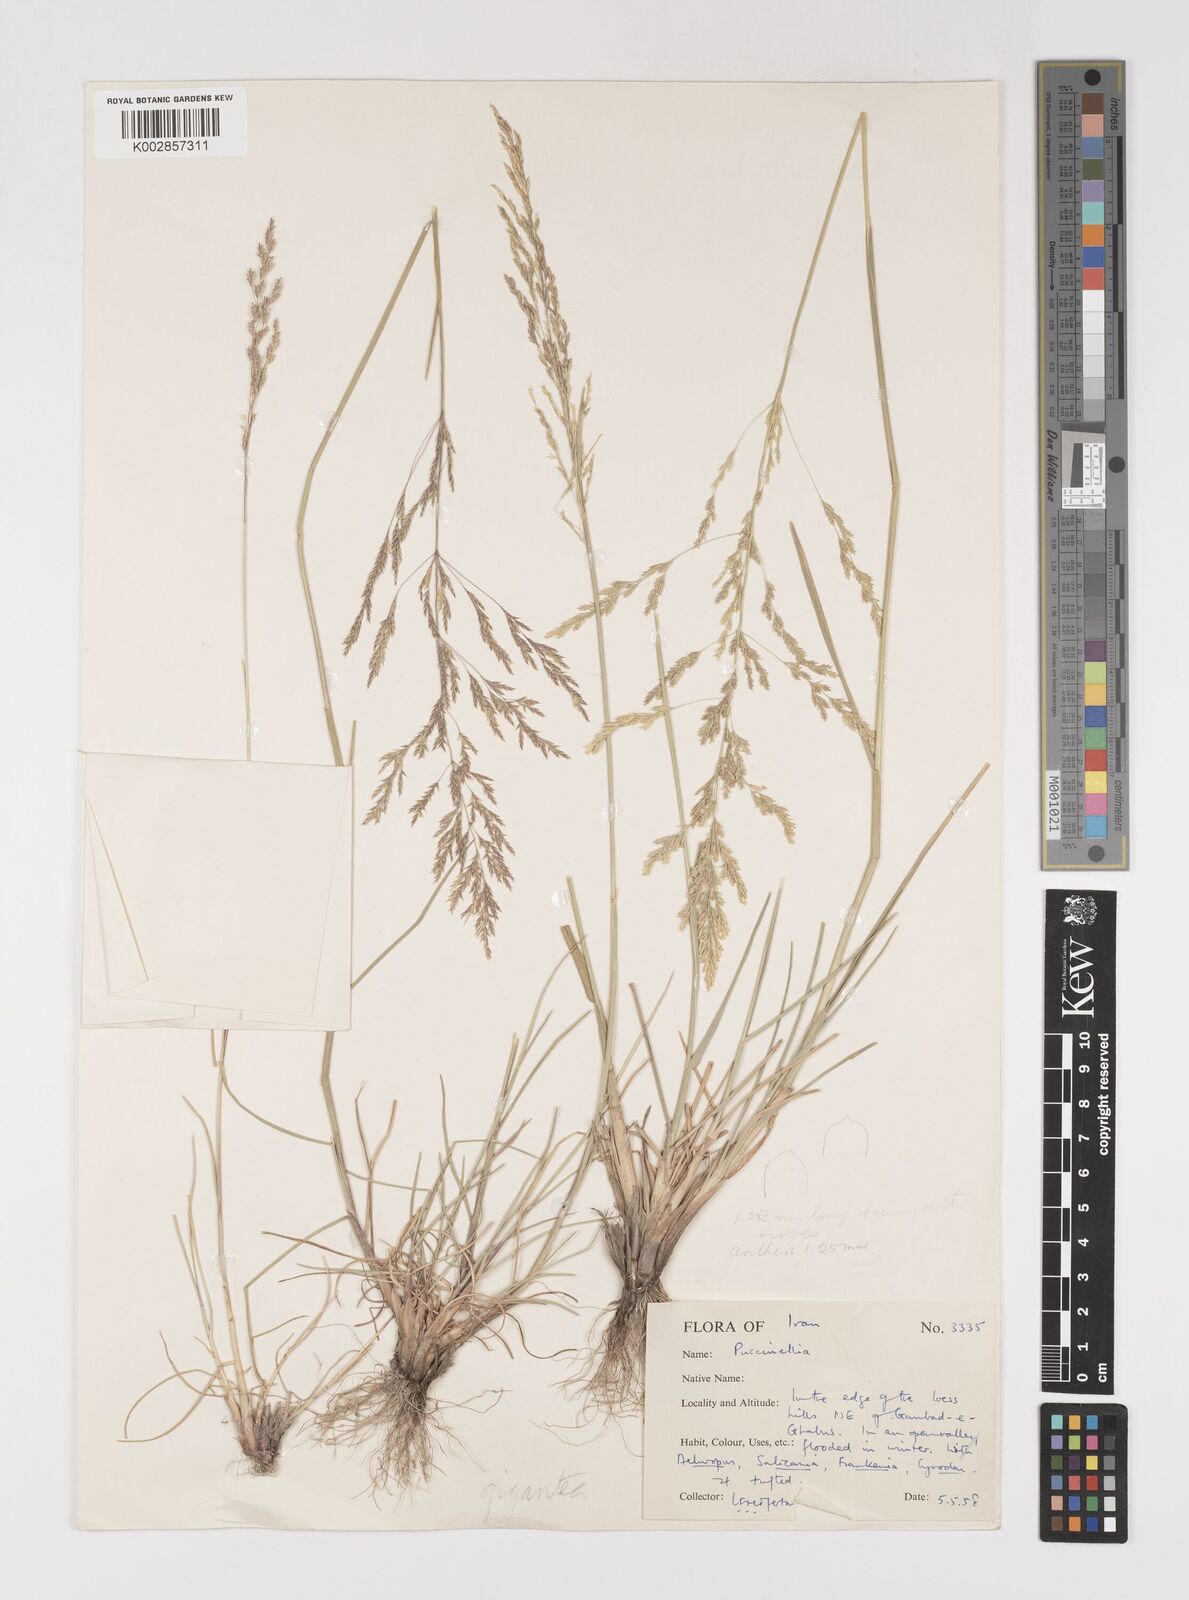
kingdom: Plantae
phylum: Tracheophyta
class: Liliopsida
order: Poales
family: Poaceae
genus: Puccinellia
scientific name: Puccinellia
